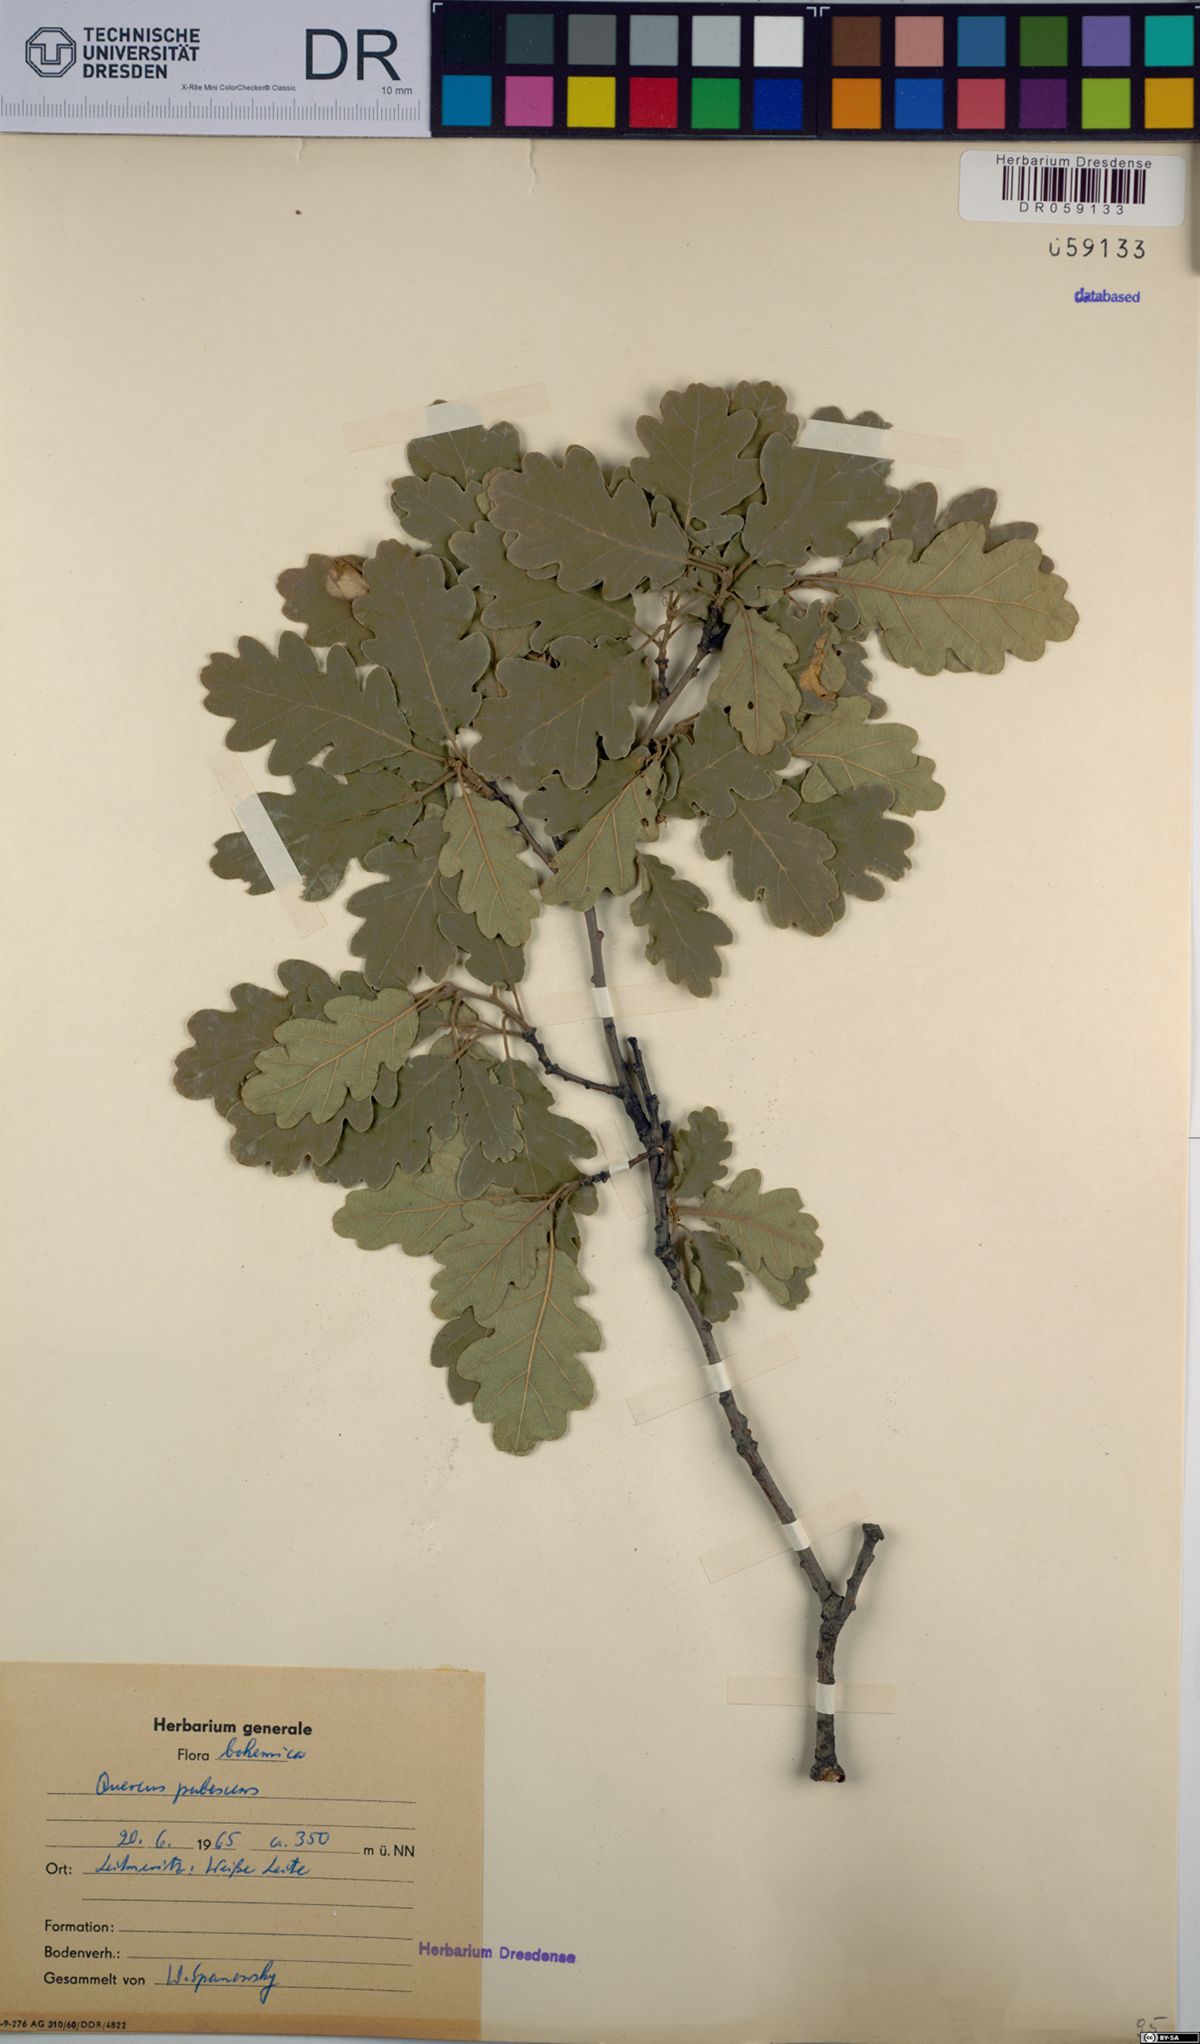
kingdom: Plantae
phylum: Tracheophyta
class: Magnoliopsida
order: Fagales
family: Fagaceae
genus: Quercus
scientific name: Quercus pubescens
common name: Downy oak
